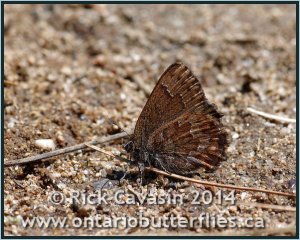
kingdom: Animalia
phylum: Arthropoda
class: Insecta
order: Lepidoptera
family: Lycaenidae
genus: Incisalia
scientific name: Incisalia niphon
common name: Eastern Pine Elfin
